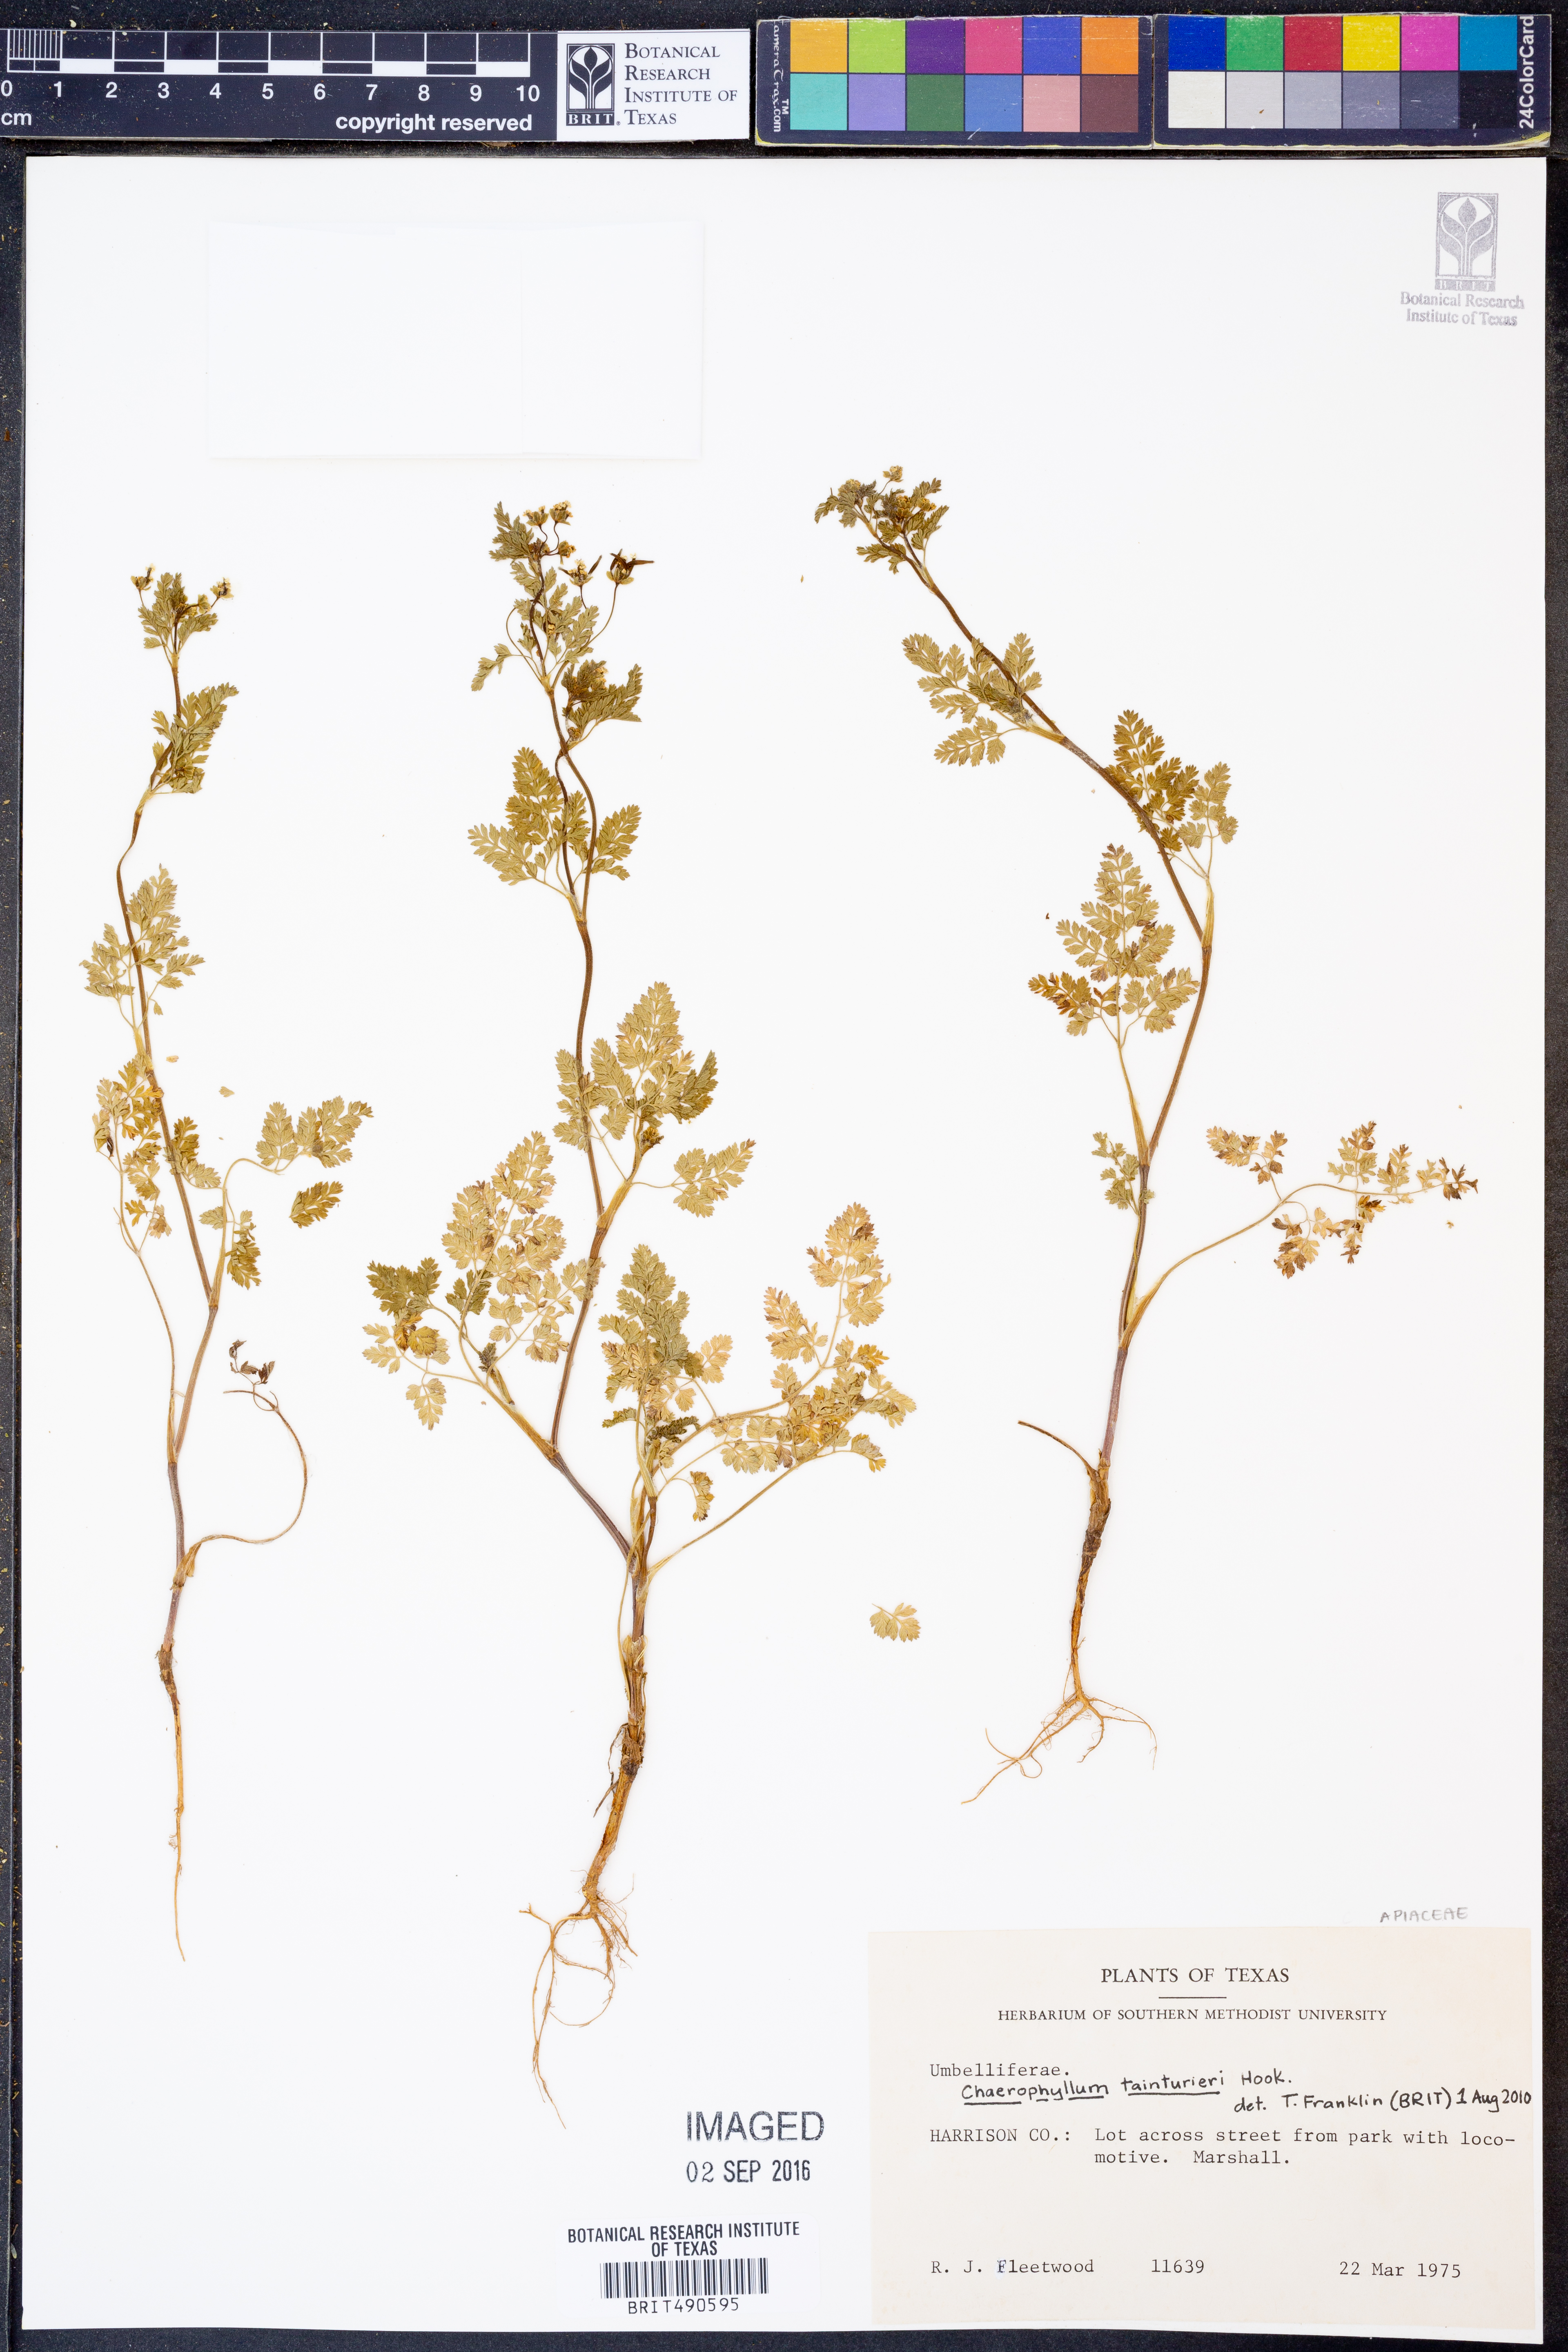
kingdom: Plantae
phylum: Tracheophyta
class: Magnoliopsida
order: Apiales
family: Apiaceae
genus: Chaerophyllum
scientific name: Chaerophyllum tainturieri
